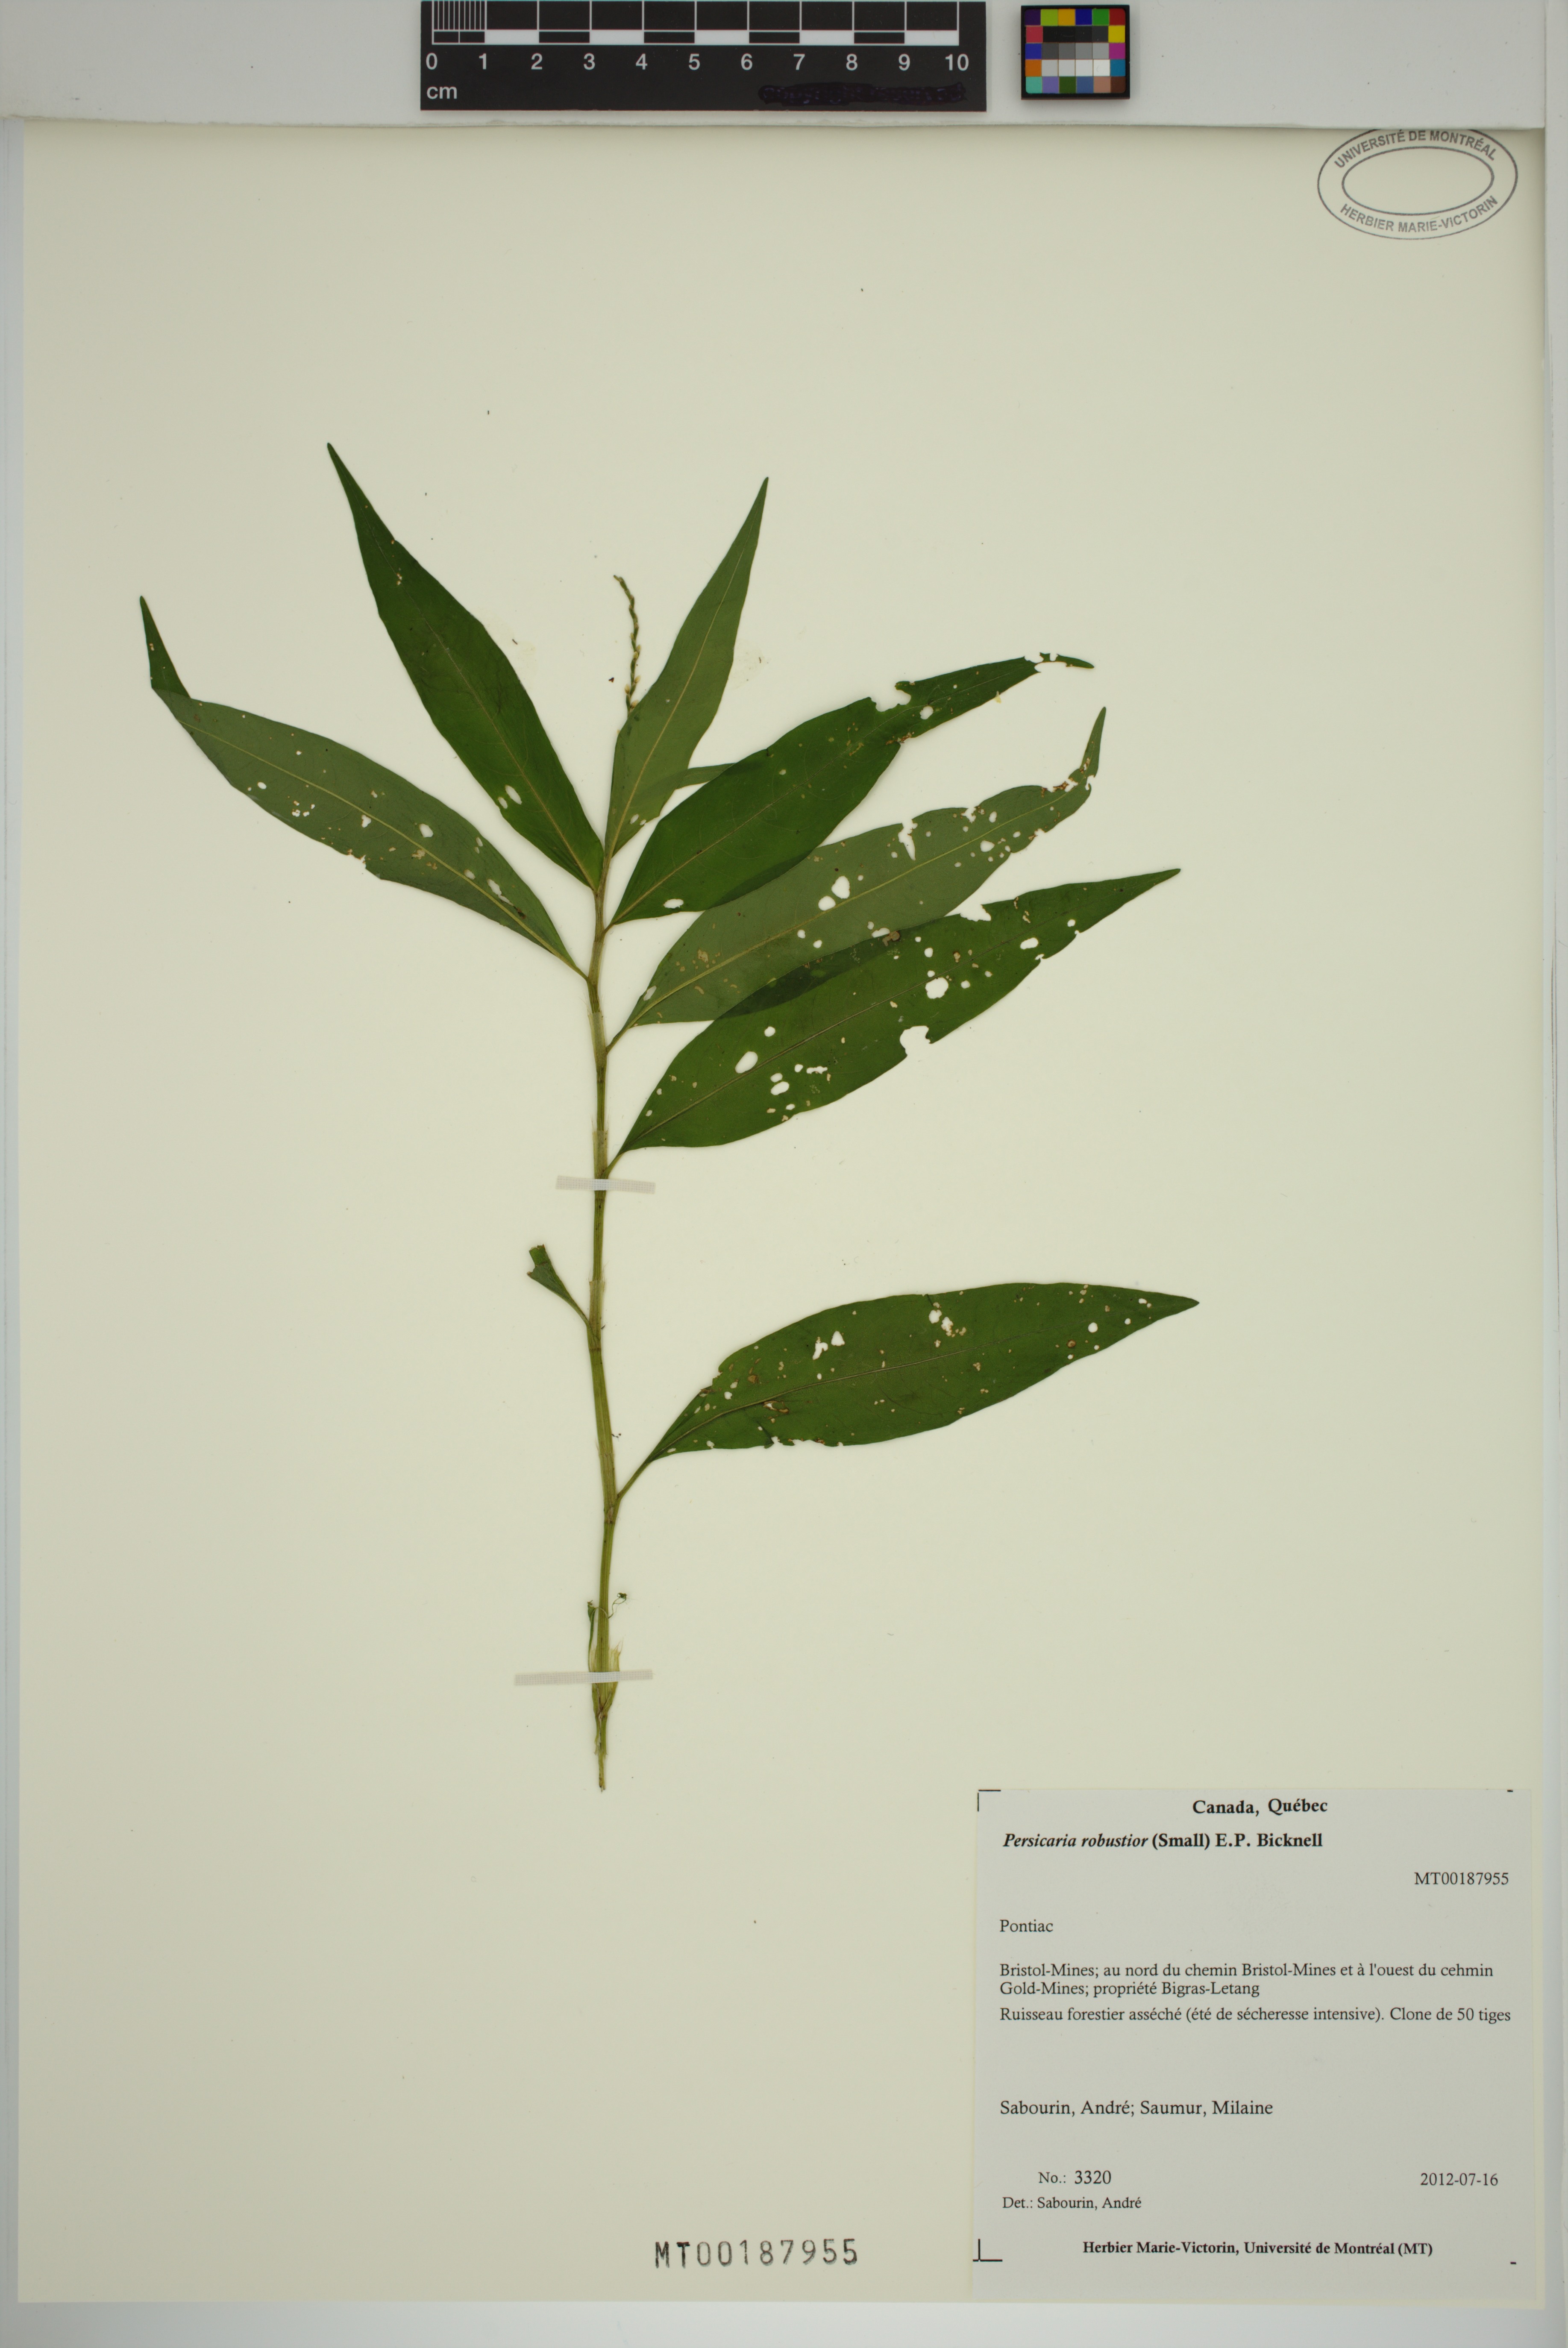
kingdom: Plantae
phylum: Tracheophyta
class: Magnoliopsida
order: Caryophyllales
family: Polygonaceae
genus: Persicaria
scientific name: Persicaria robustior
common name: Stout smartweed
